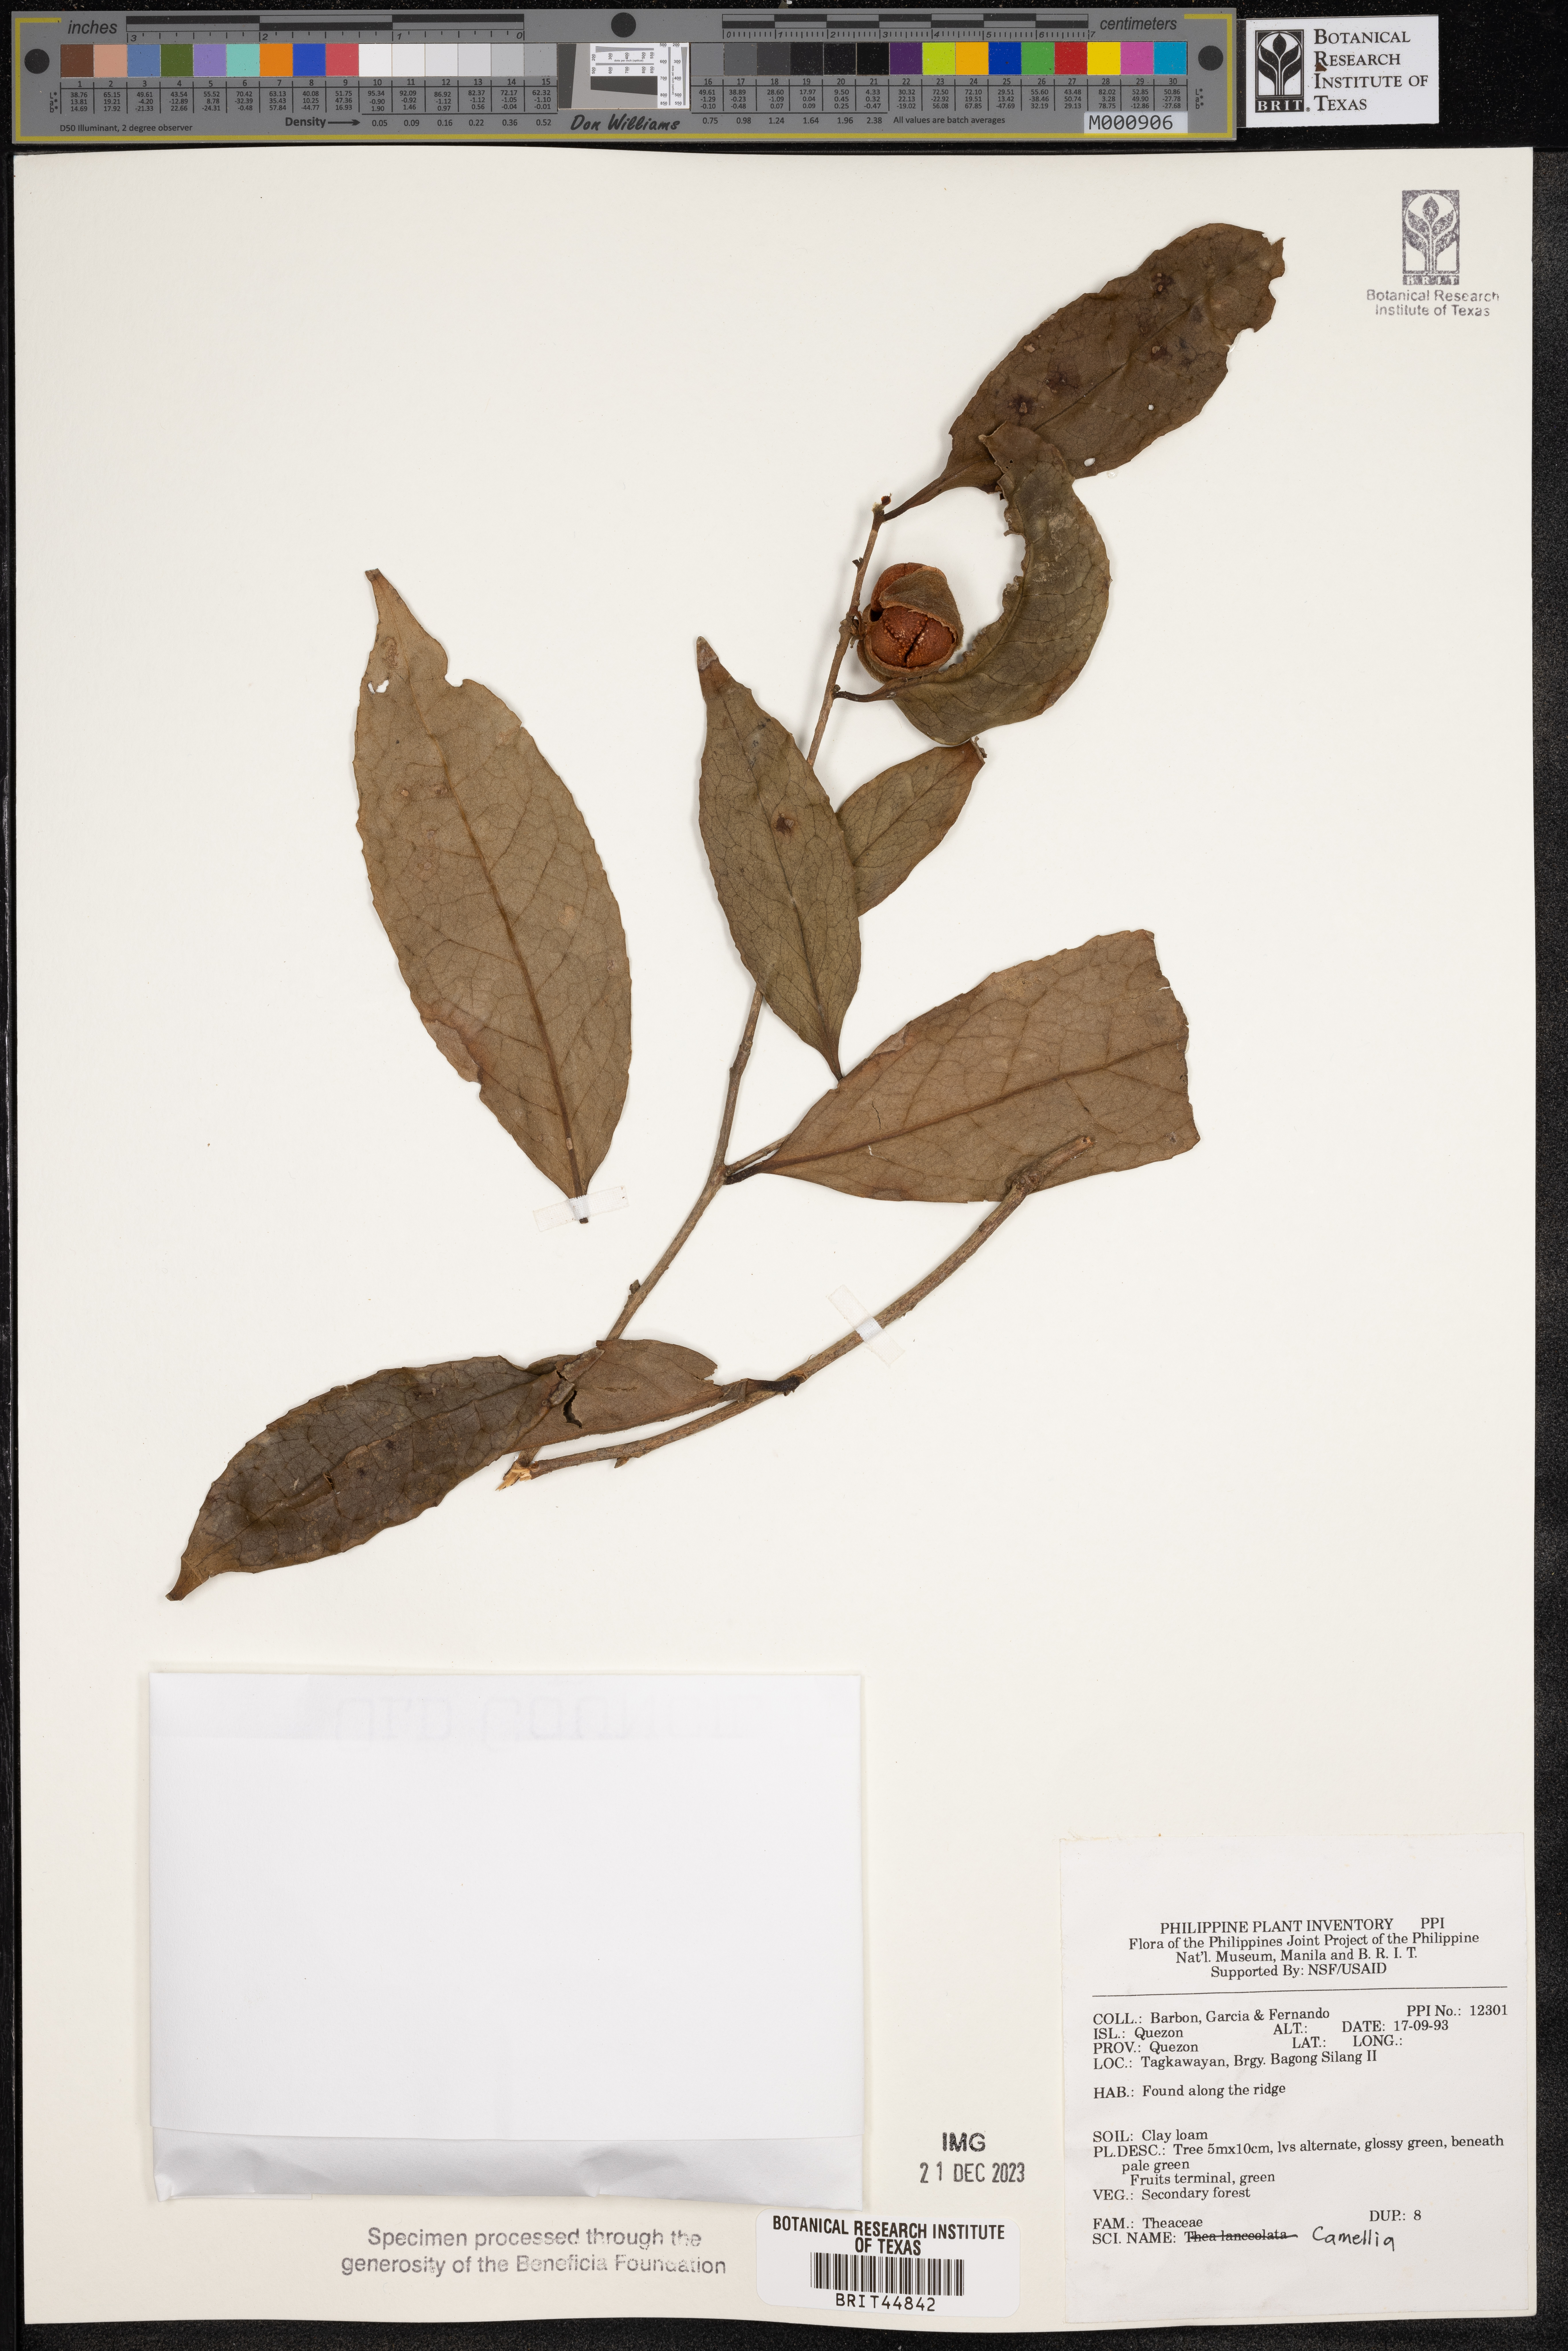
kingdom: Plantae
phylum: Tracheophyta
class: Magnoliopsida
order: Ericales
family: Theaceae
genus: Camellia
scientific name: Camellia
